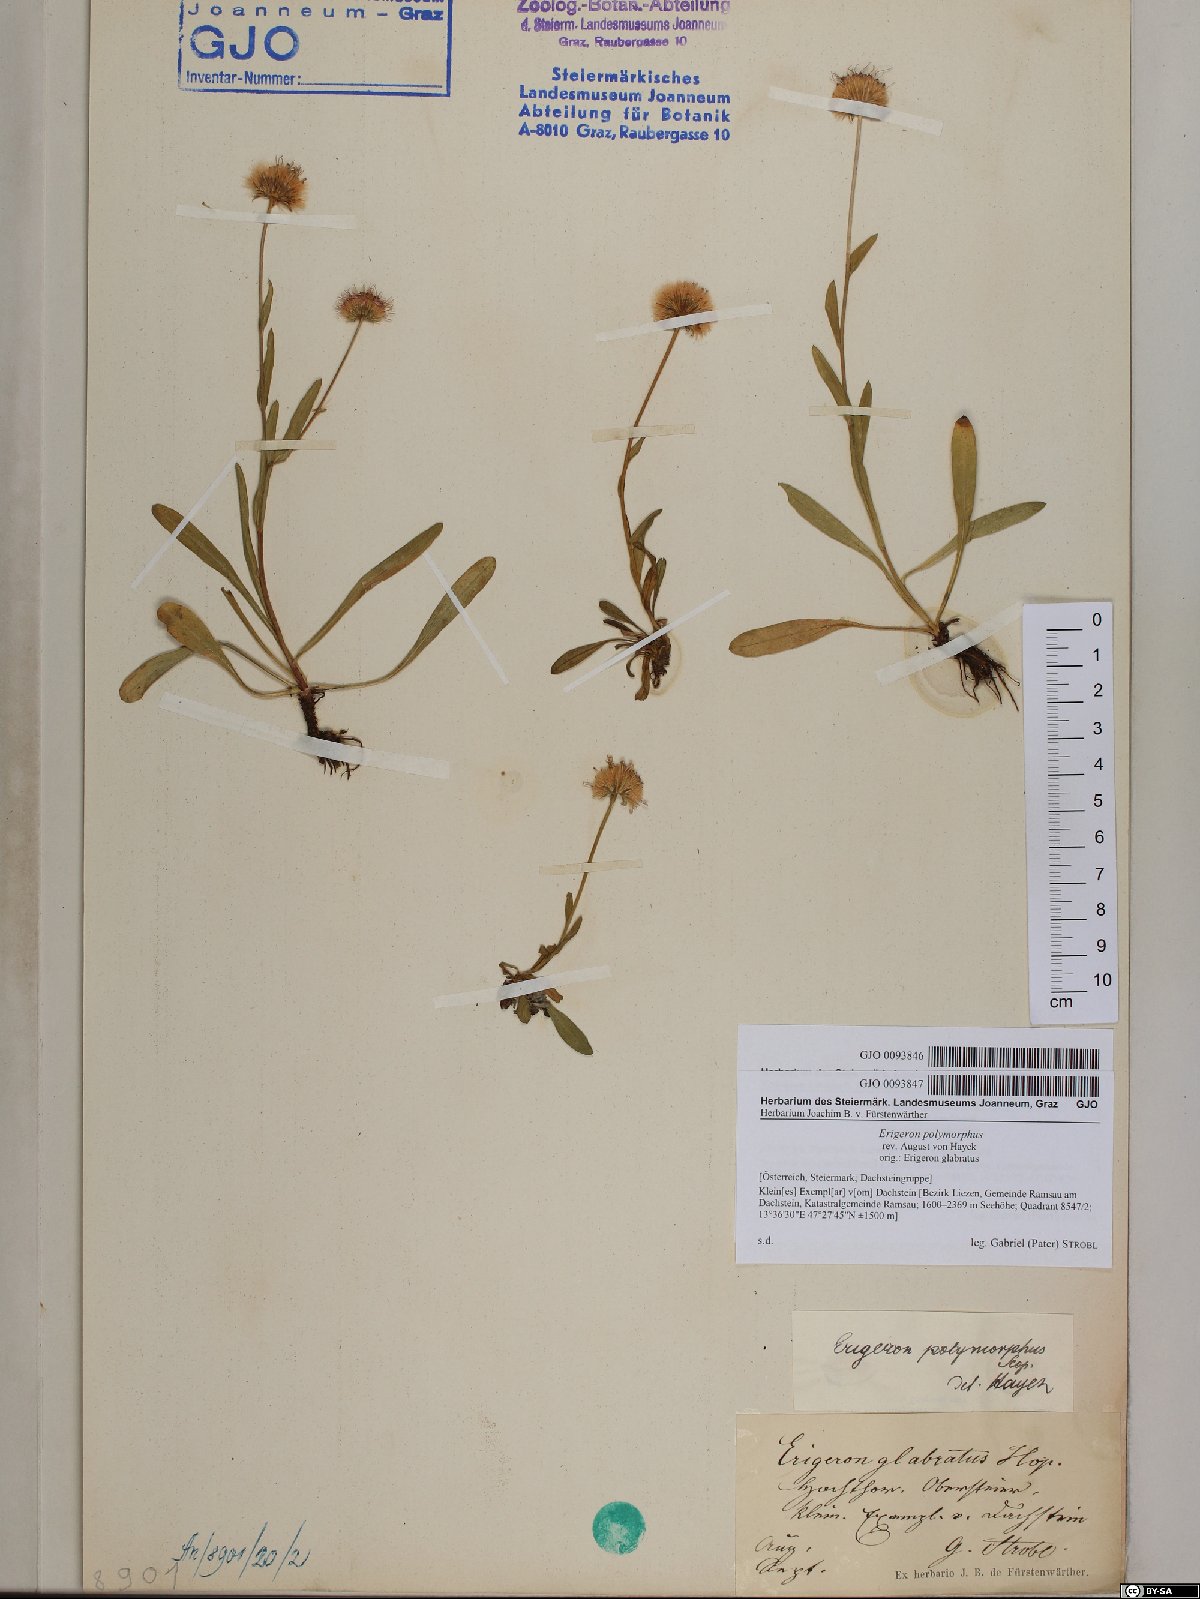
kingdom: Plantae
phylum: Tracheophyta
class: Magnoliopsida
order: Asterales
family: Asteraceae
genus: Erigeron
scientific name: Erigeron alpinus
